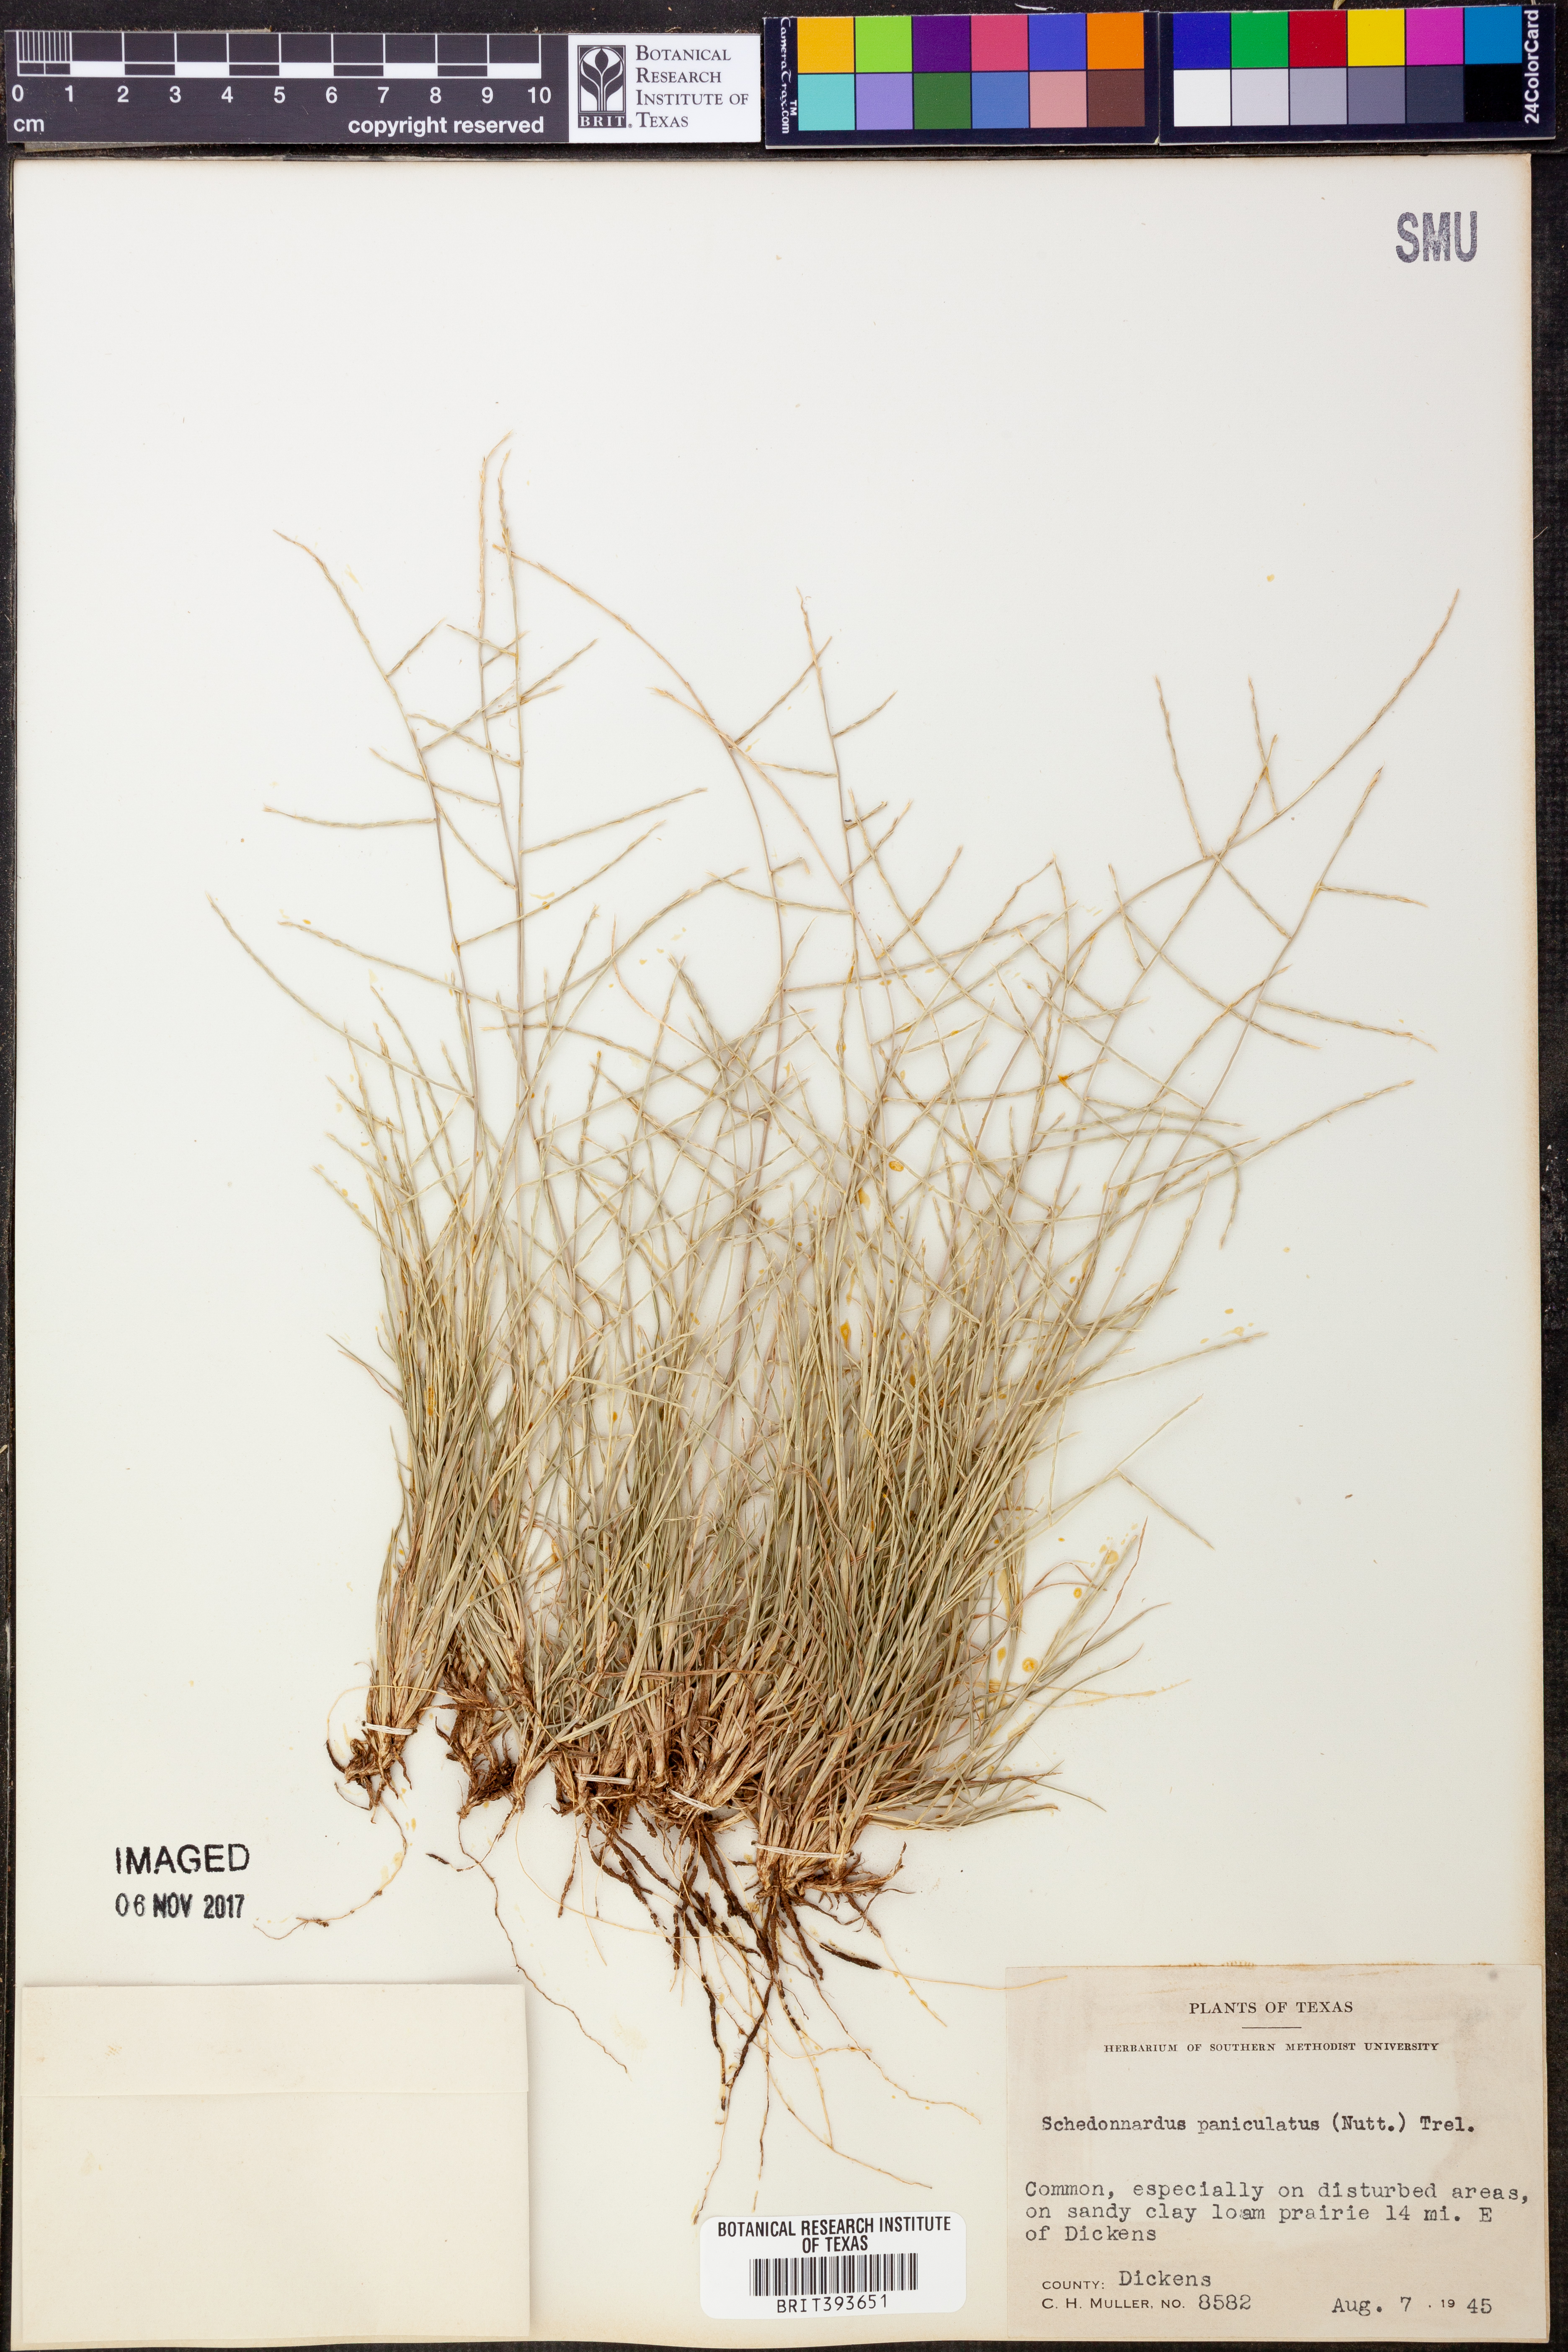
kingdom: Plantae
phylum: Tracheophyta
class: Liliopsida
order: Poales
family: Poaceae
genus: Muhlenbergia
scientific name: Muhlenbergia paniculata
